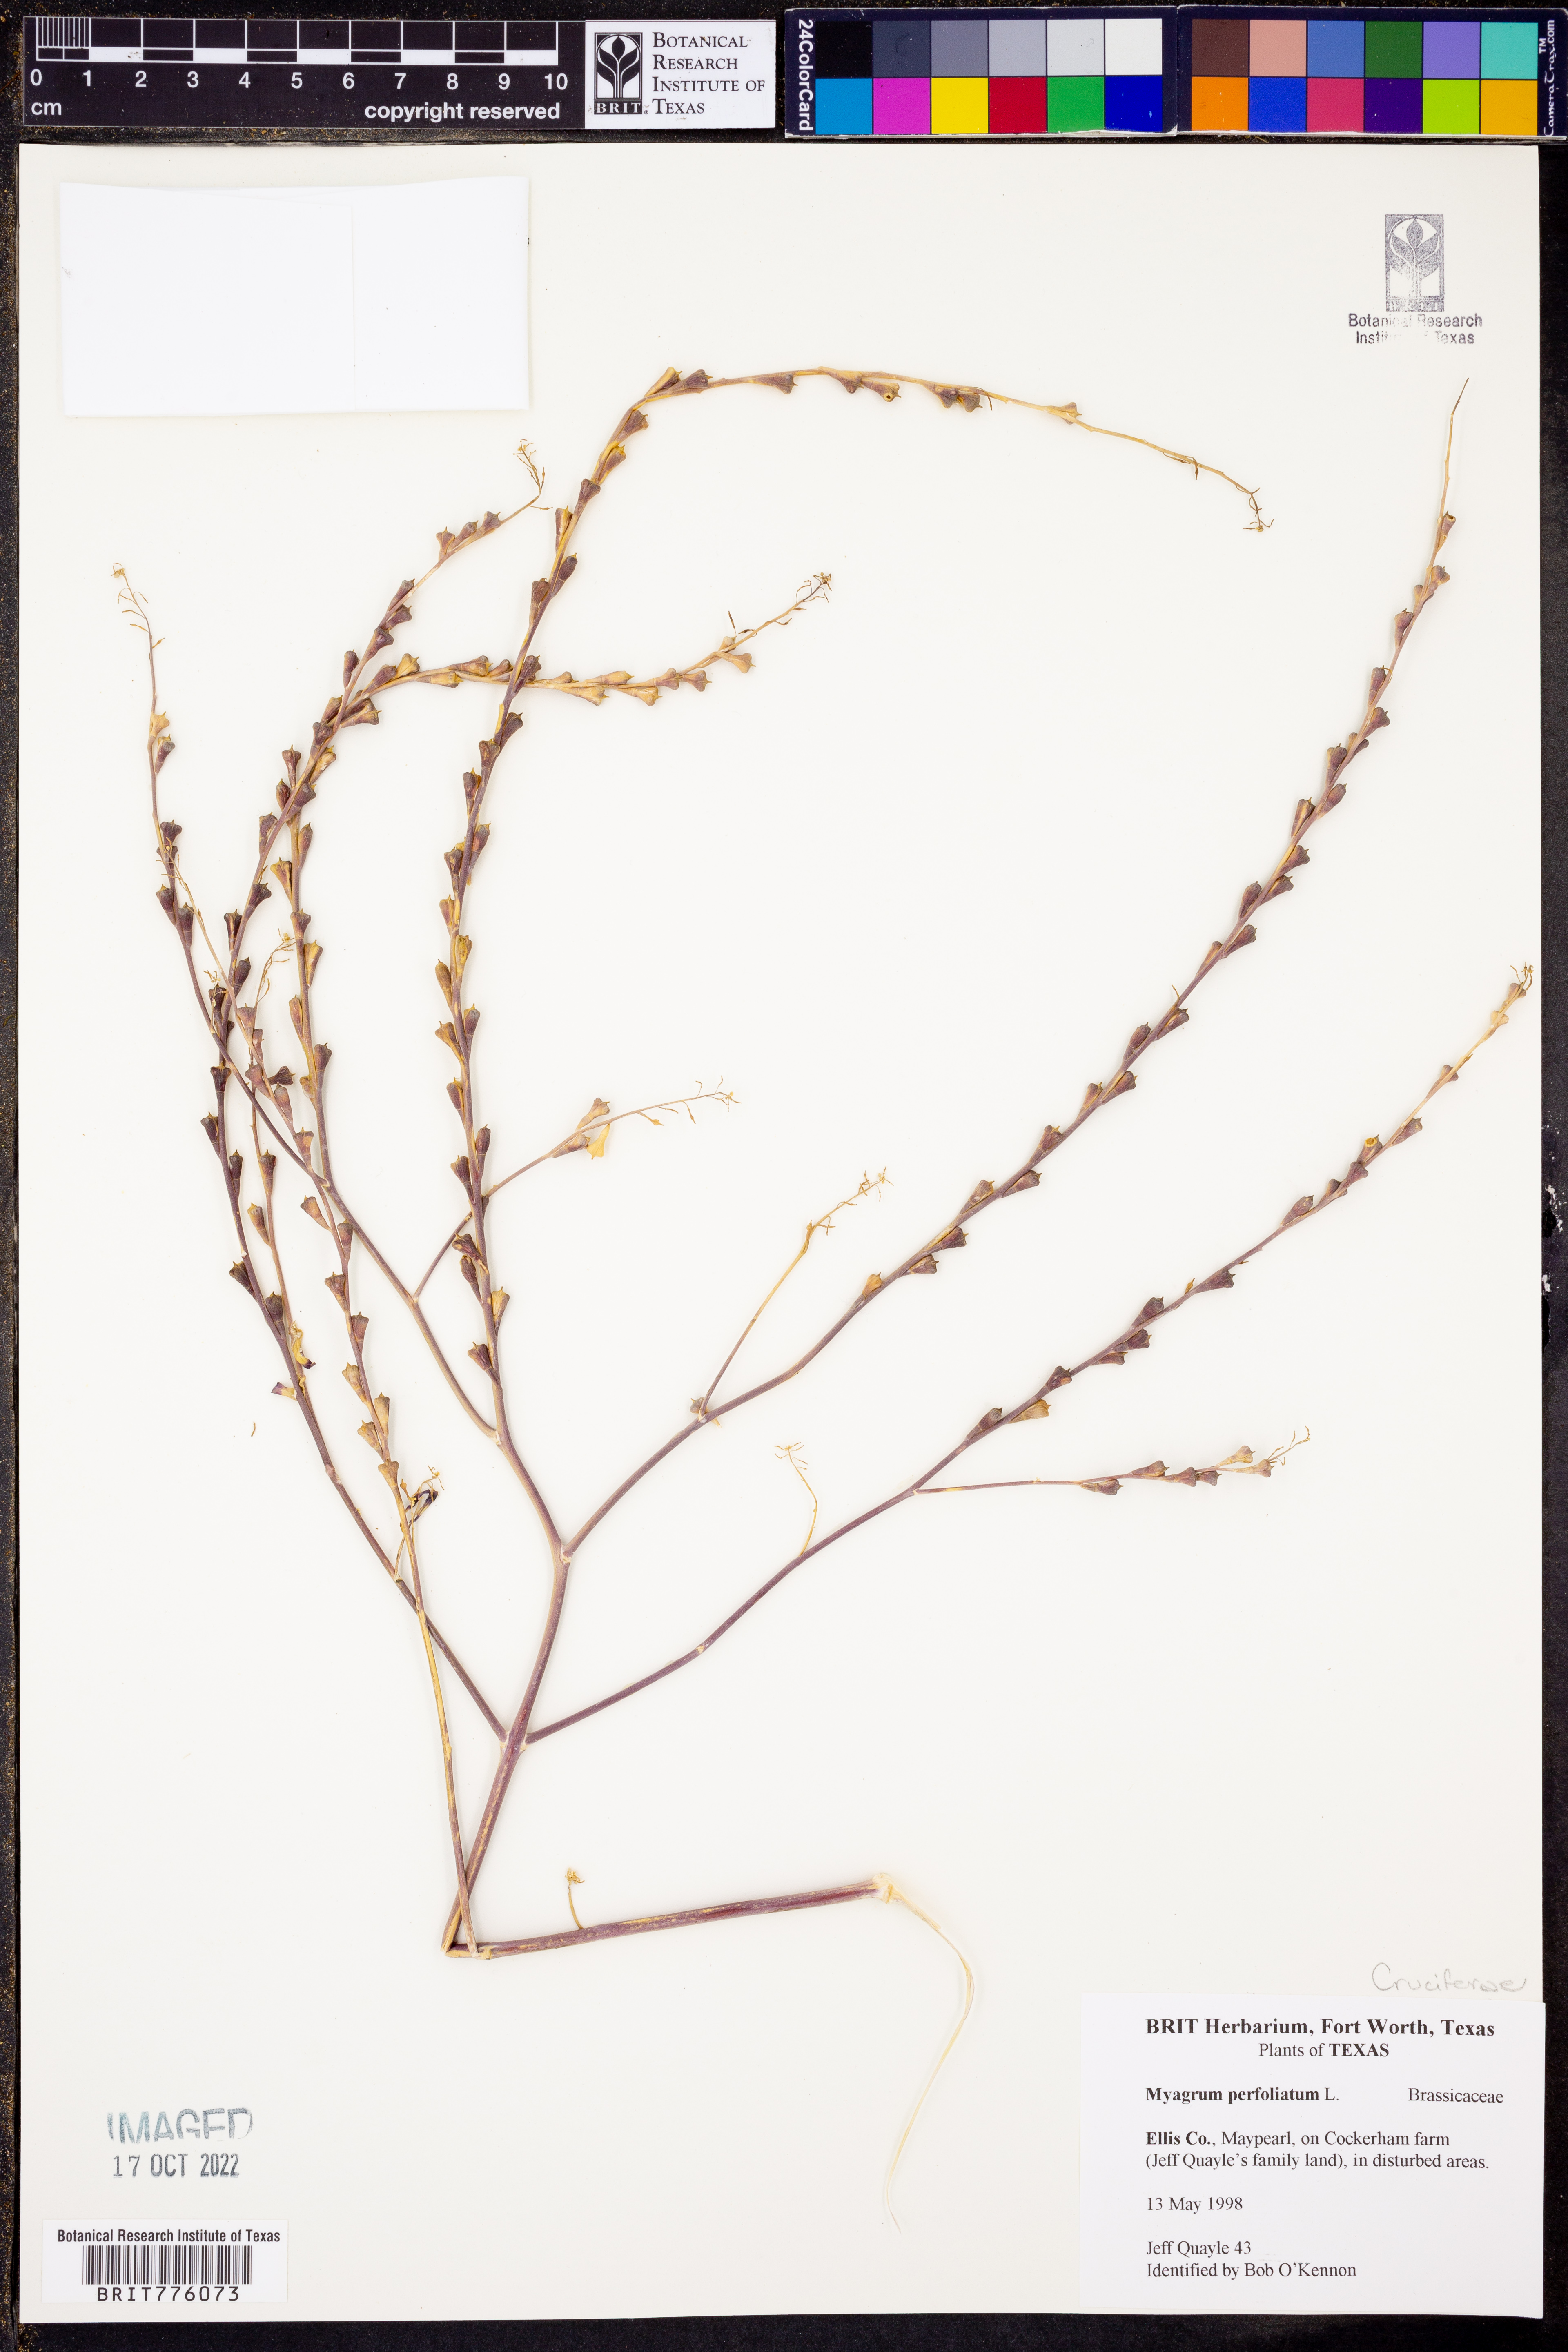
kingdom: Plantae
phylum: Tracheophyta
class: Magnoliopsida
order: Brassicales
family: Brassicaceae
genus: Myagrum
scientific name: Myagrum perfoliatum
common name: Mitre cress
